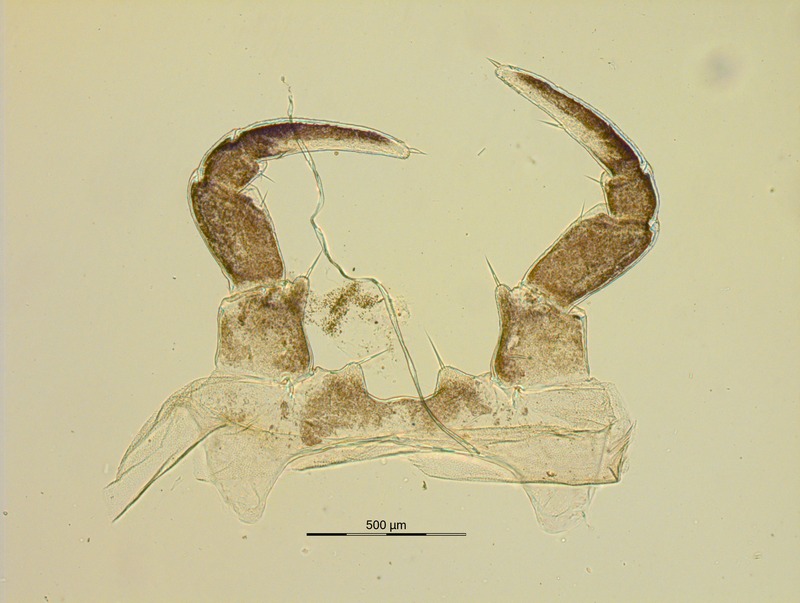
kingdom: Animalia
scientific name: Animalia
